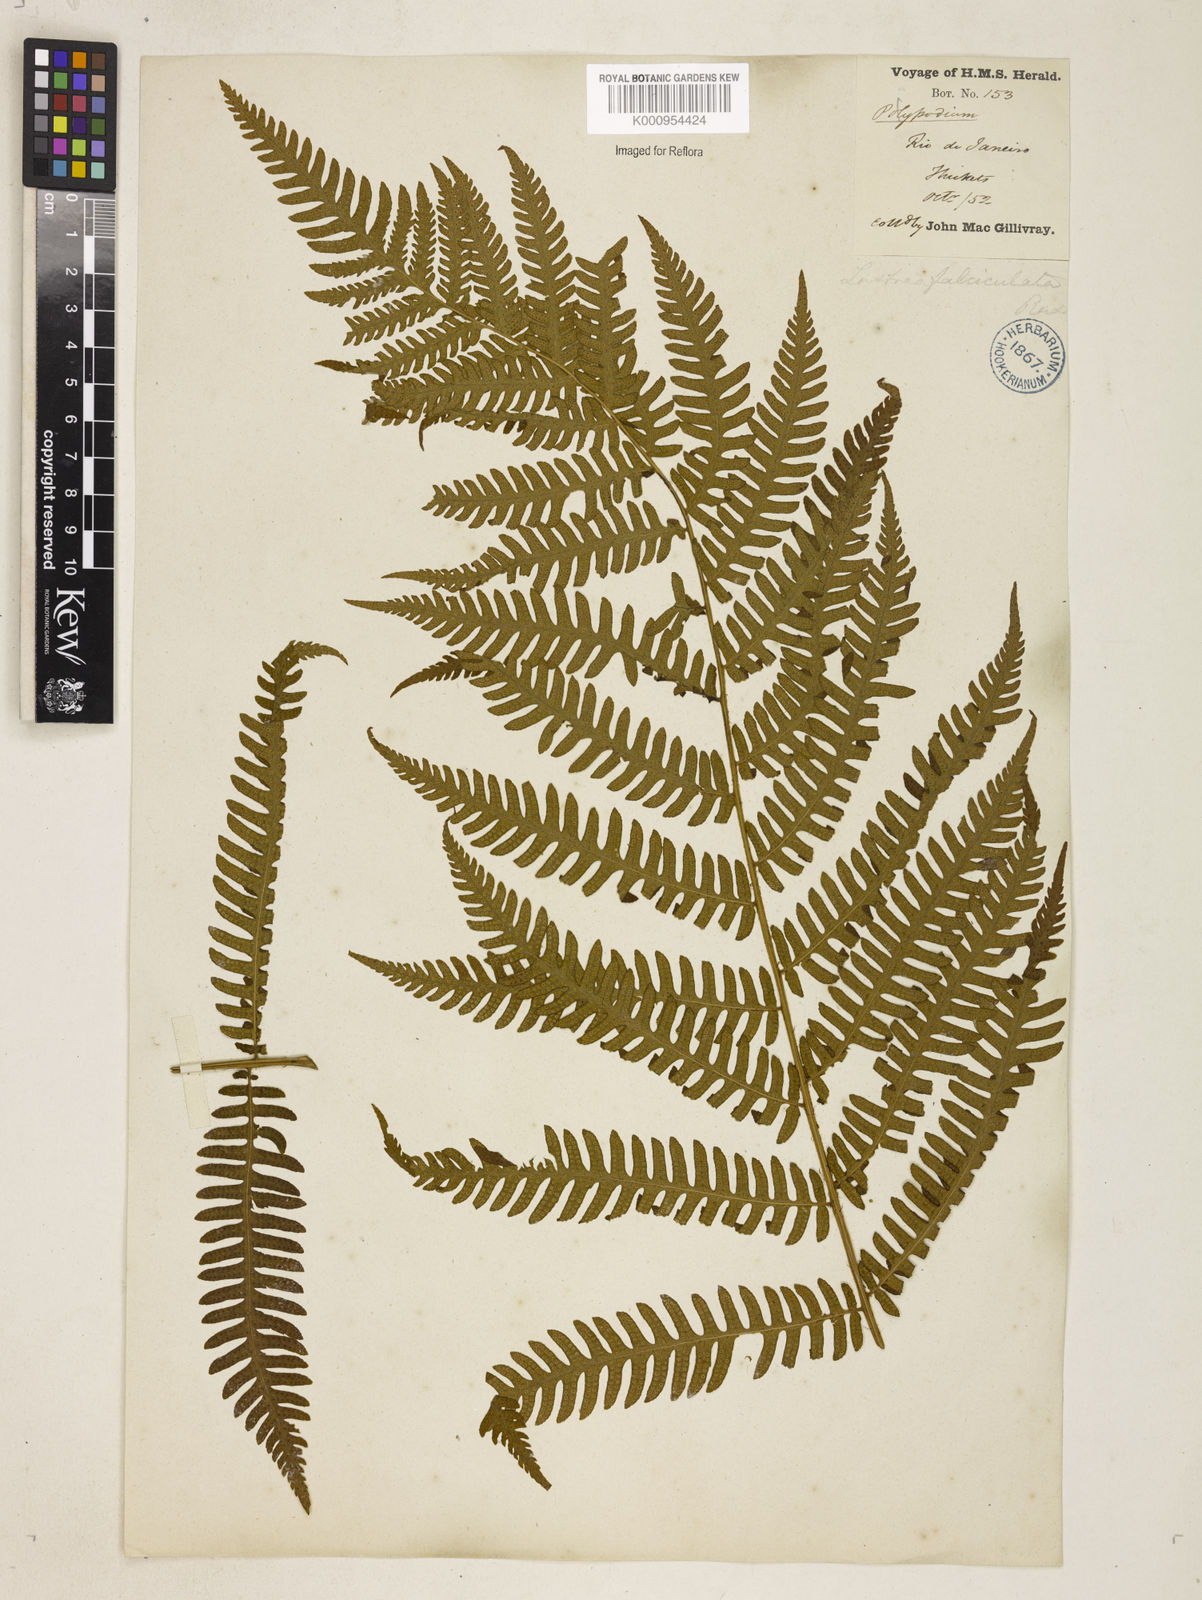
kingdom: Plantae
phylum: Tracheophyta
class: Polypodiopsida
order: Polypodiales
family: Dryopteridaceae
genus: Ctenitis
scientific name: Ctenitis falciculata
